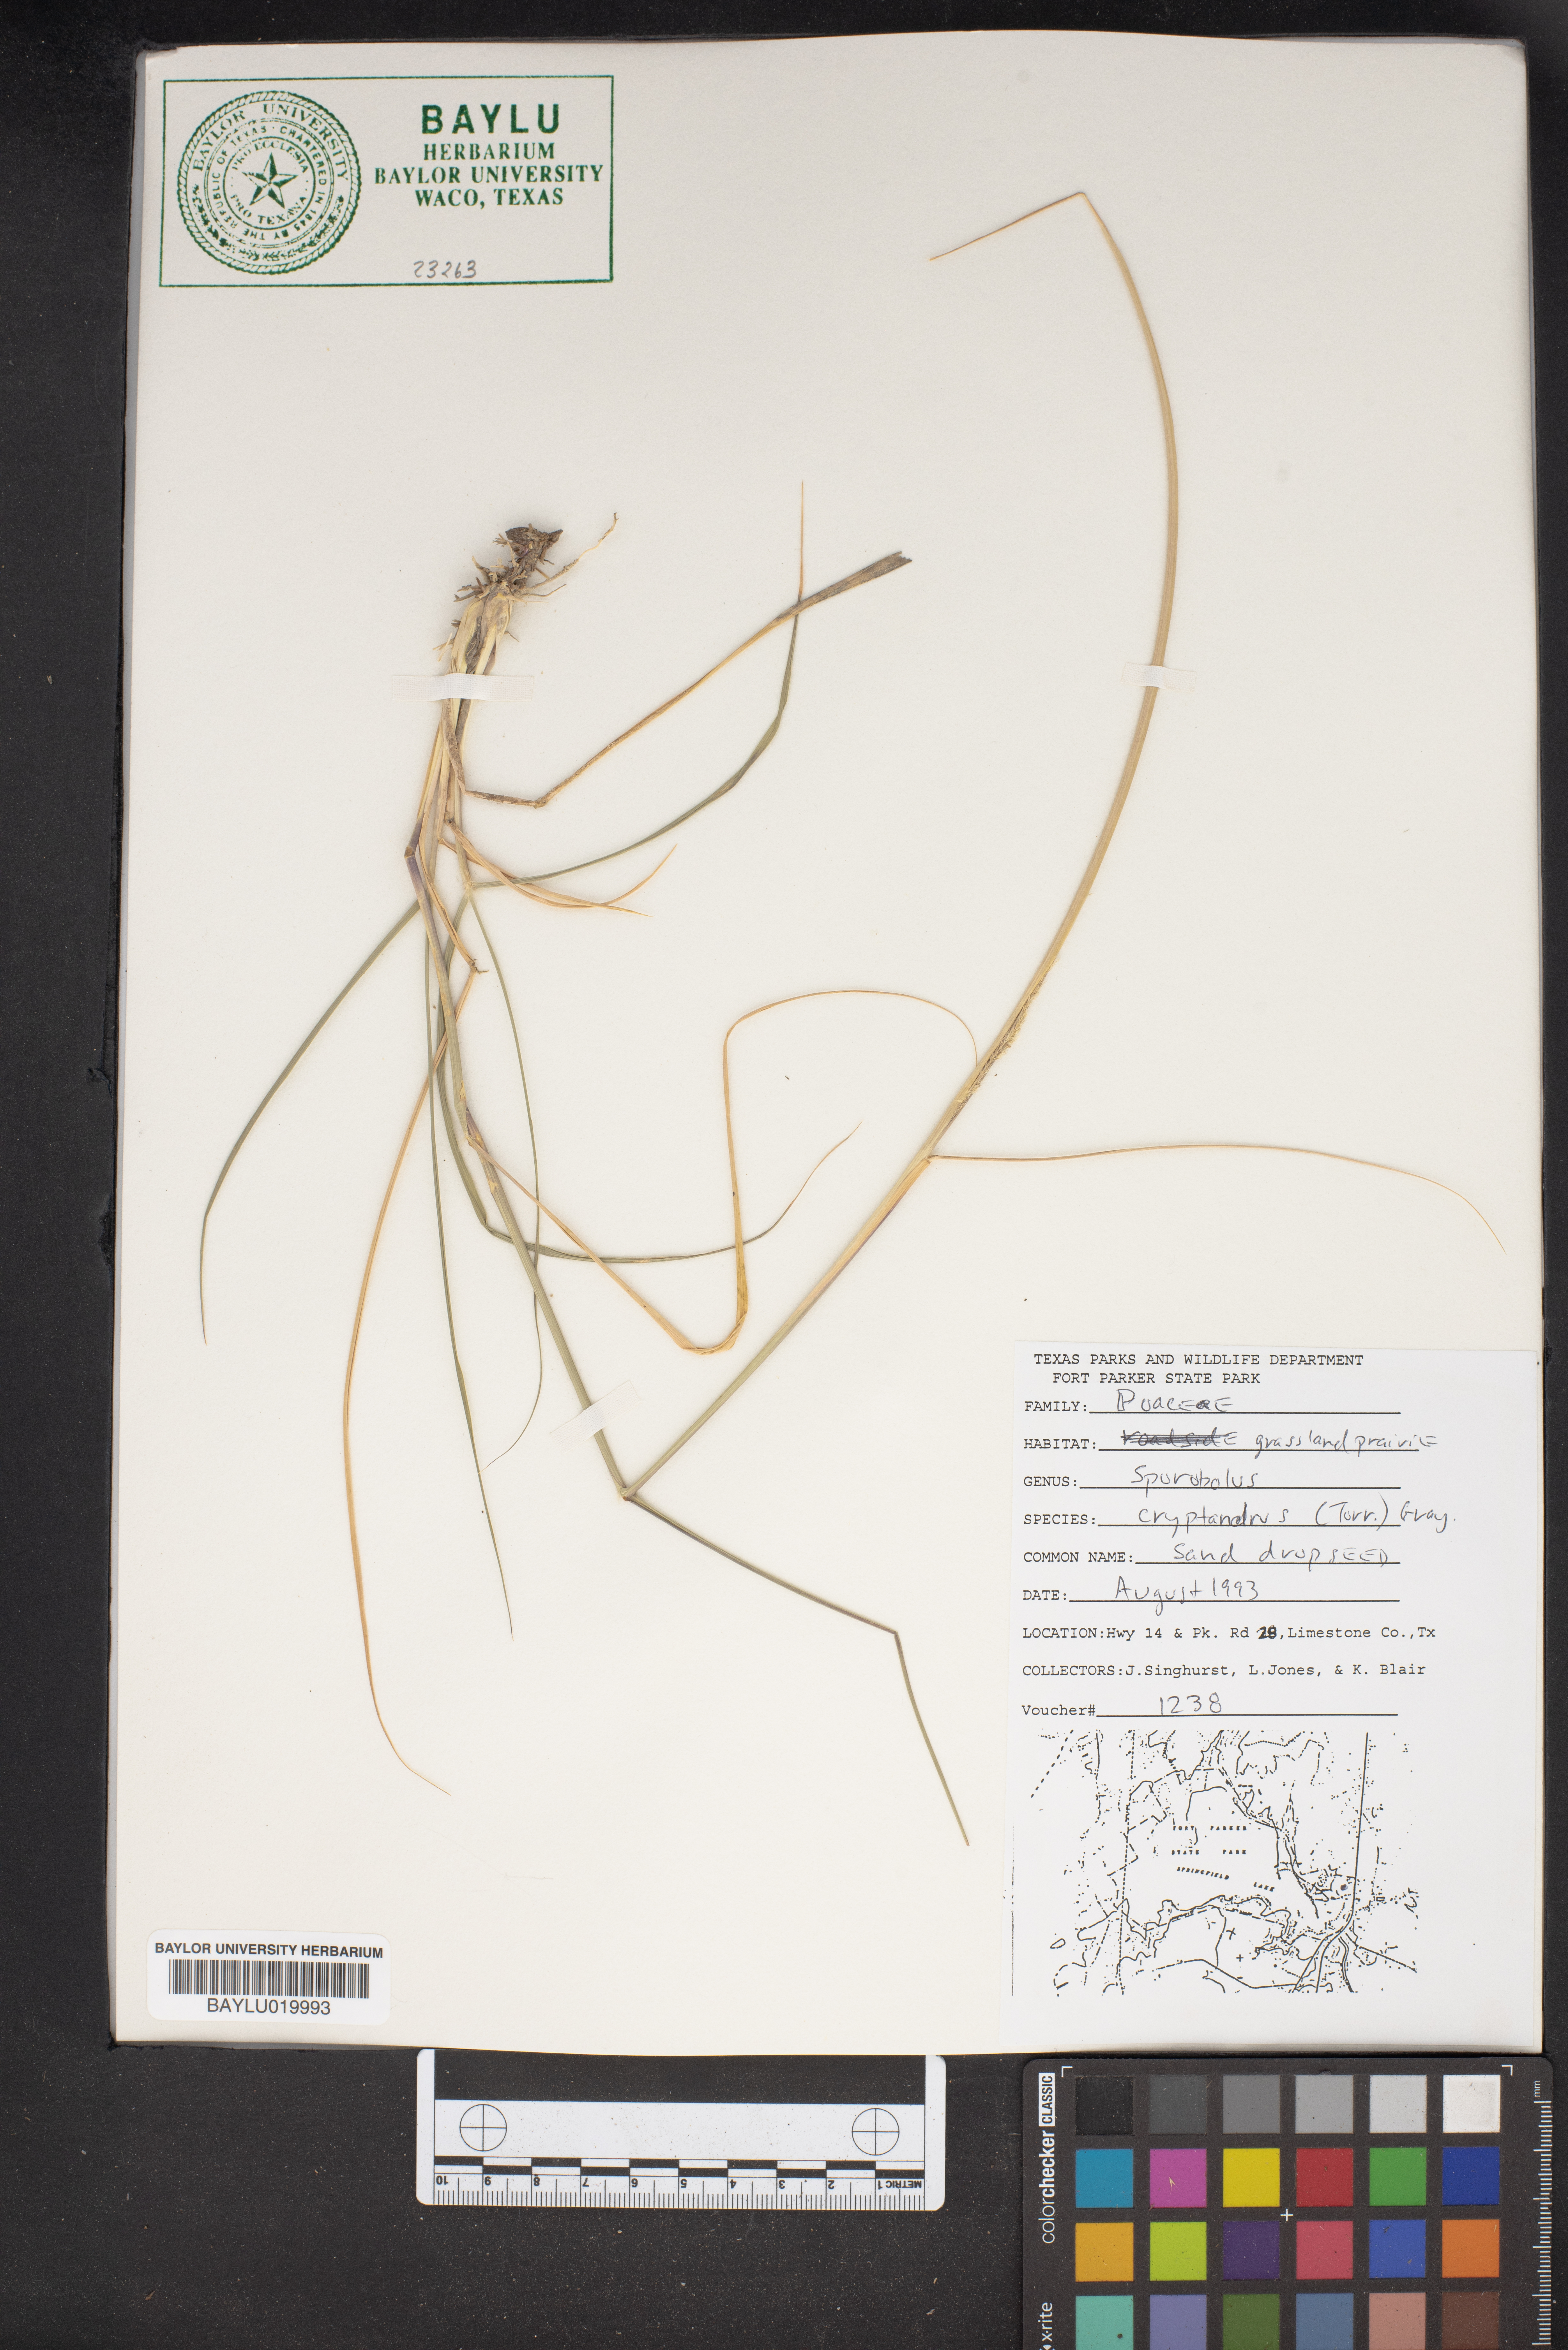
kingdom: Plantae
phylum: Tracheophyta
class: Liliopsida
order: Poales
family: Poaceae
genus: Sporobolus
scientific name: Sporobolus cryptandrus
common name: Sand dropseed
